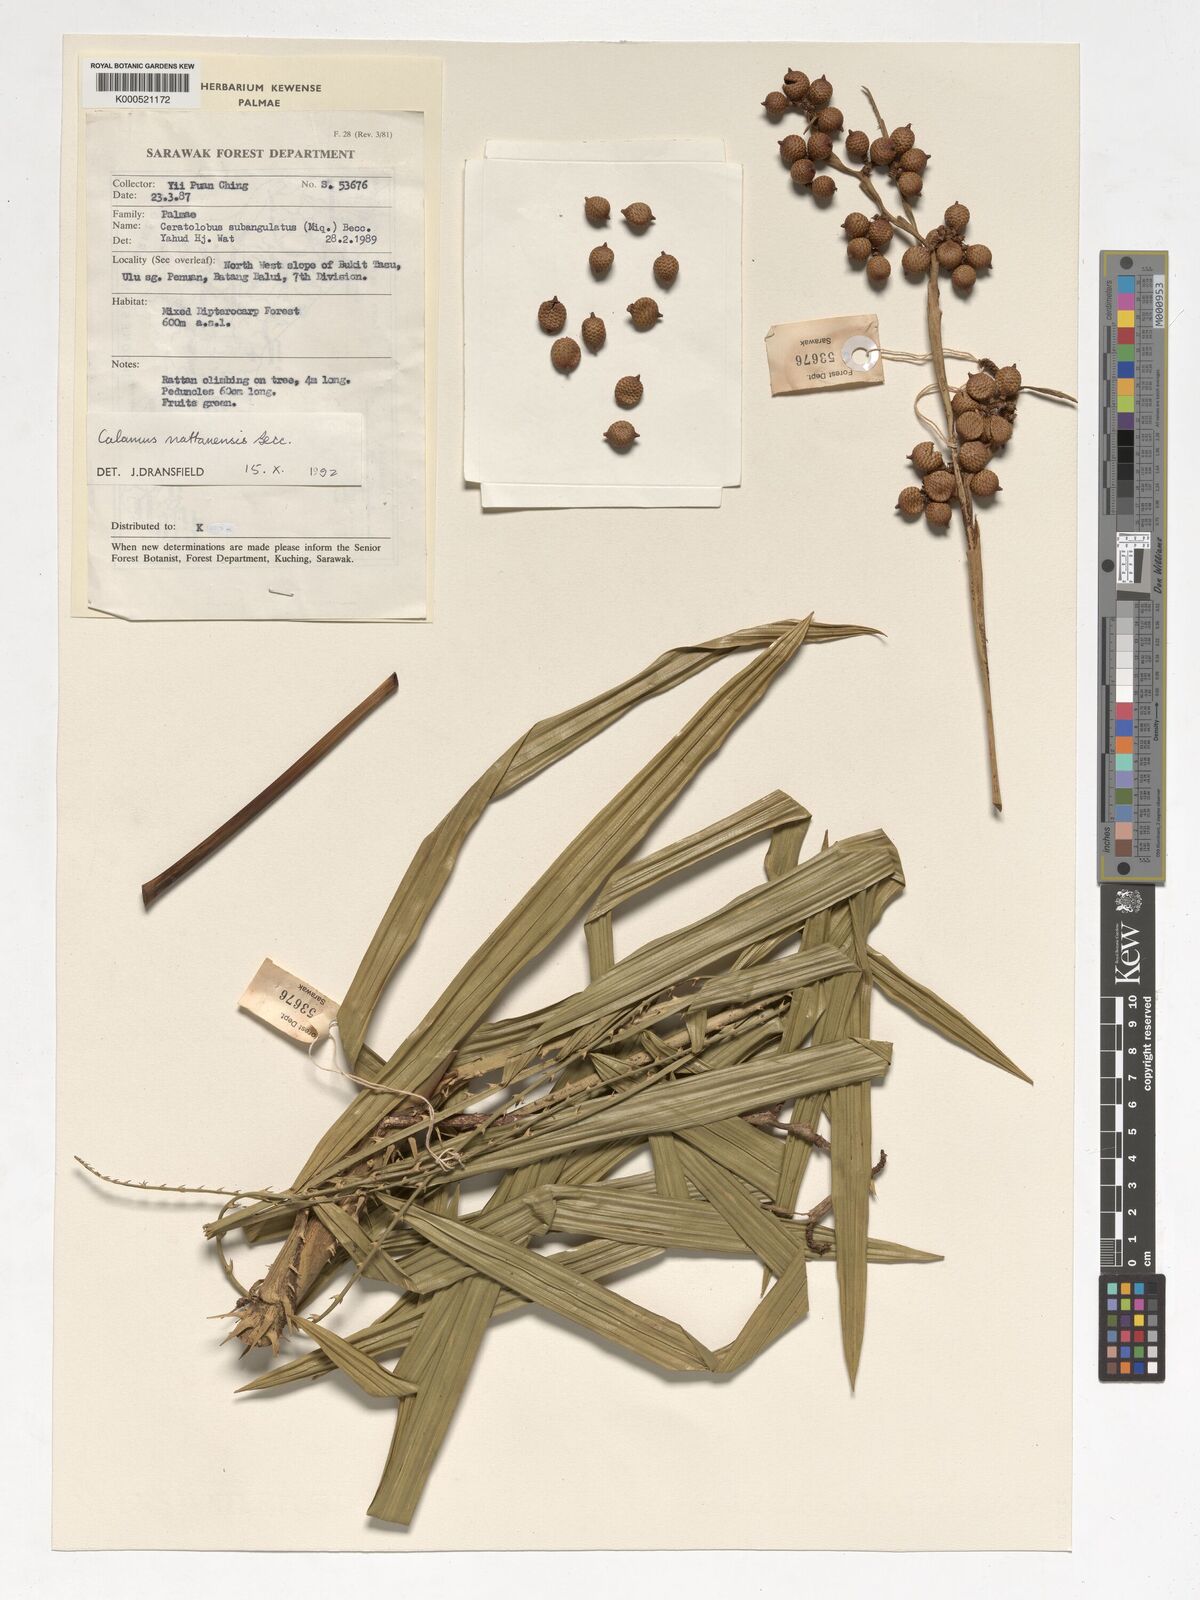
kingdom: Plantae
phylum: Tracheophyta
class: Liliopsida
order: Arecales
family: Arecaceae
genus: Calamus
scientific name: Calamus
